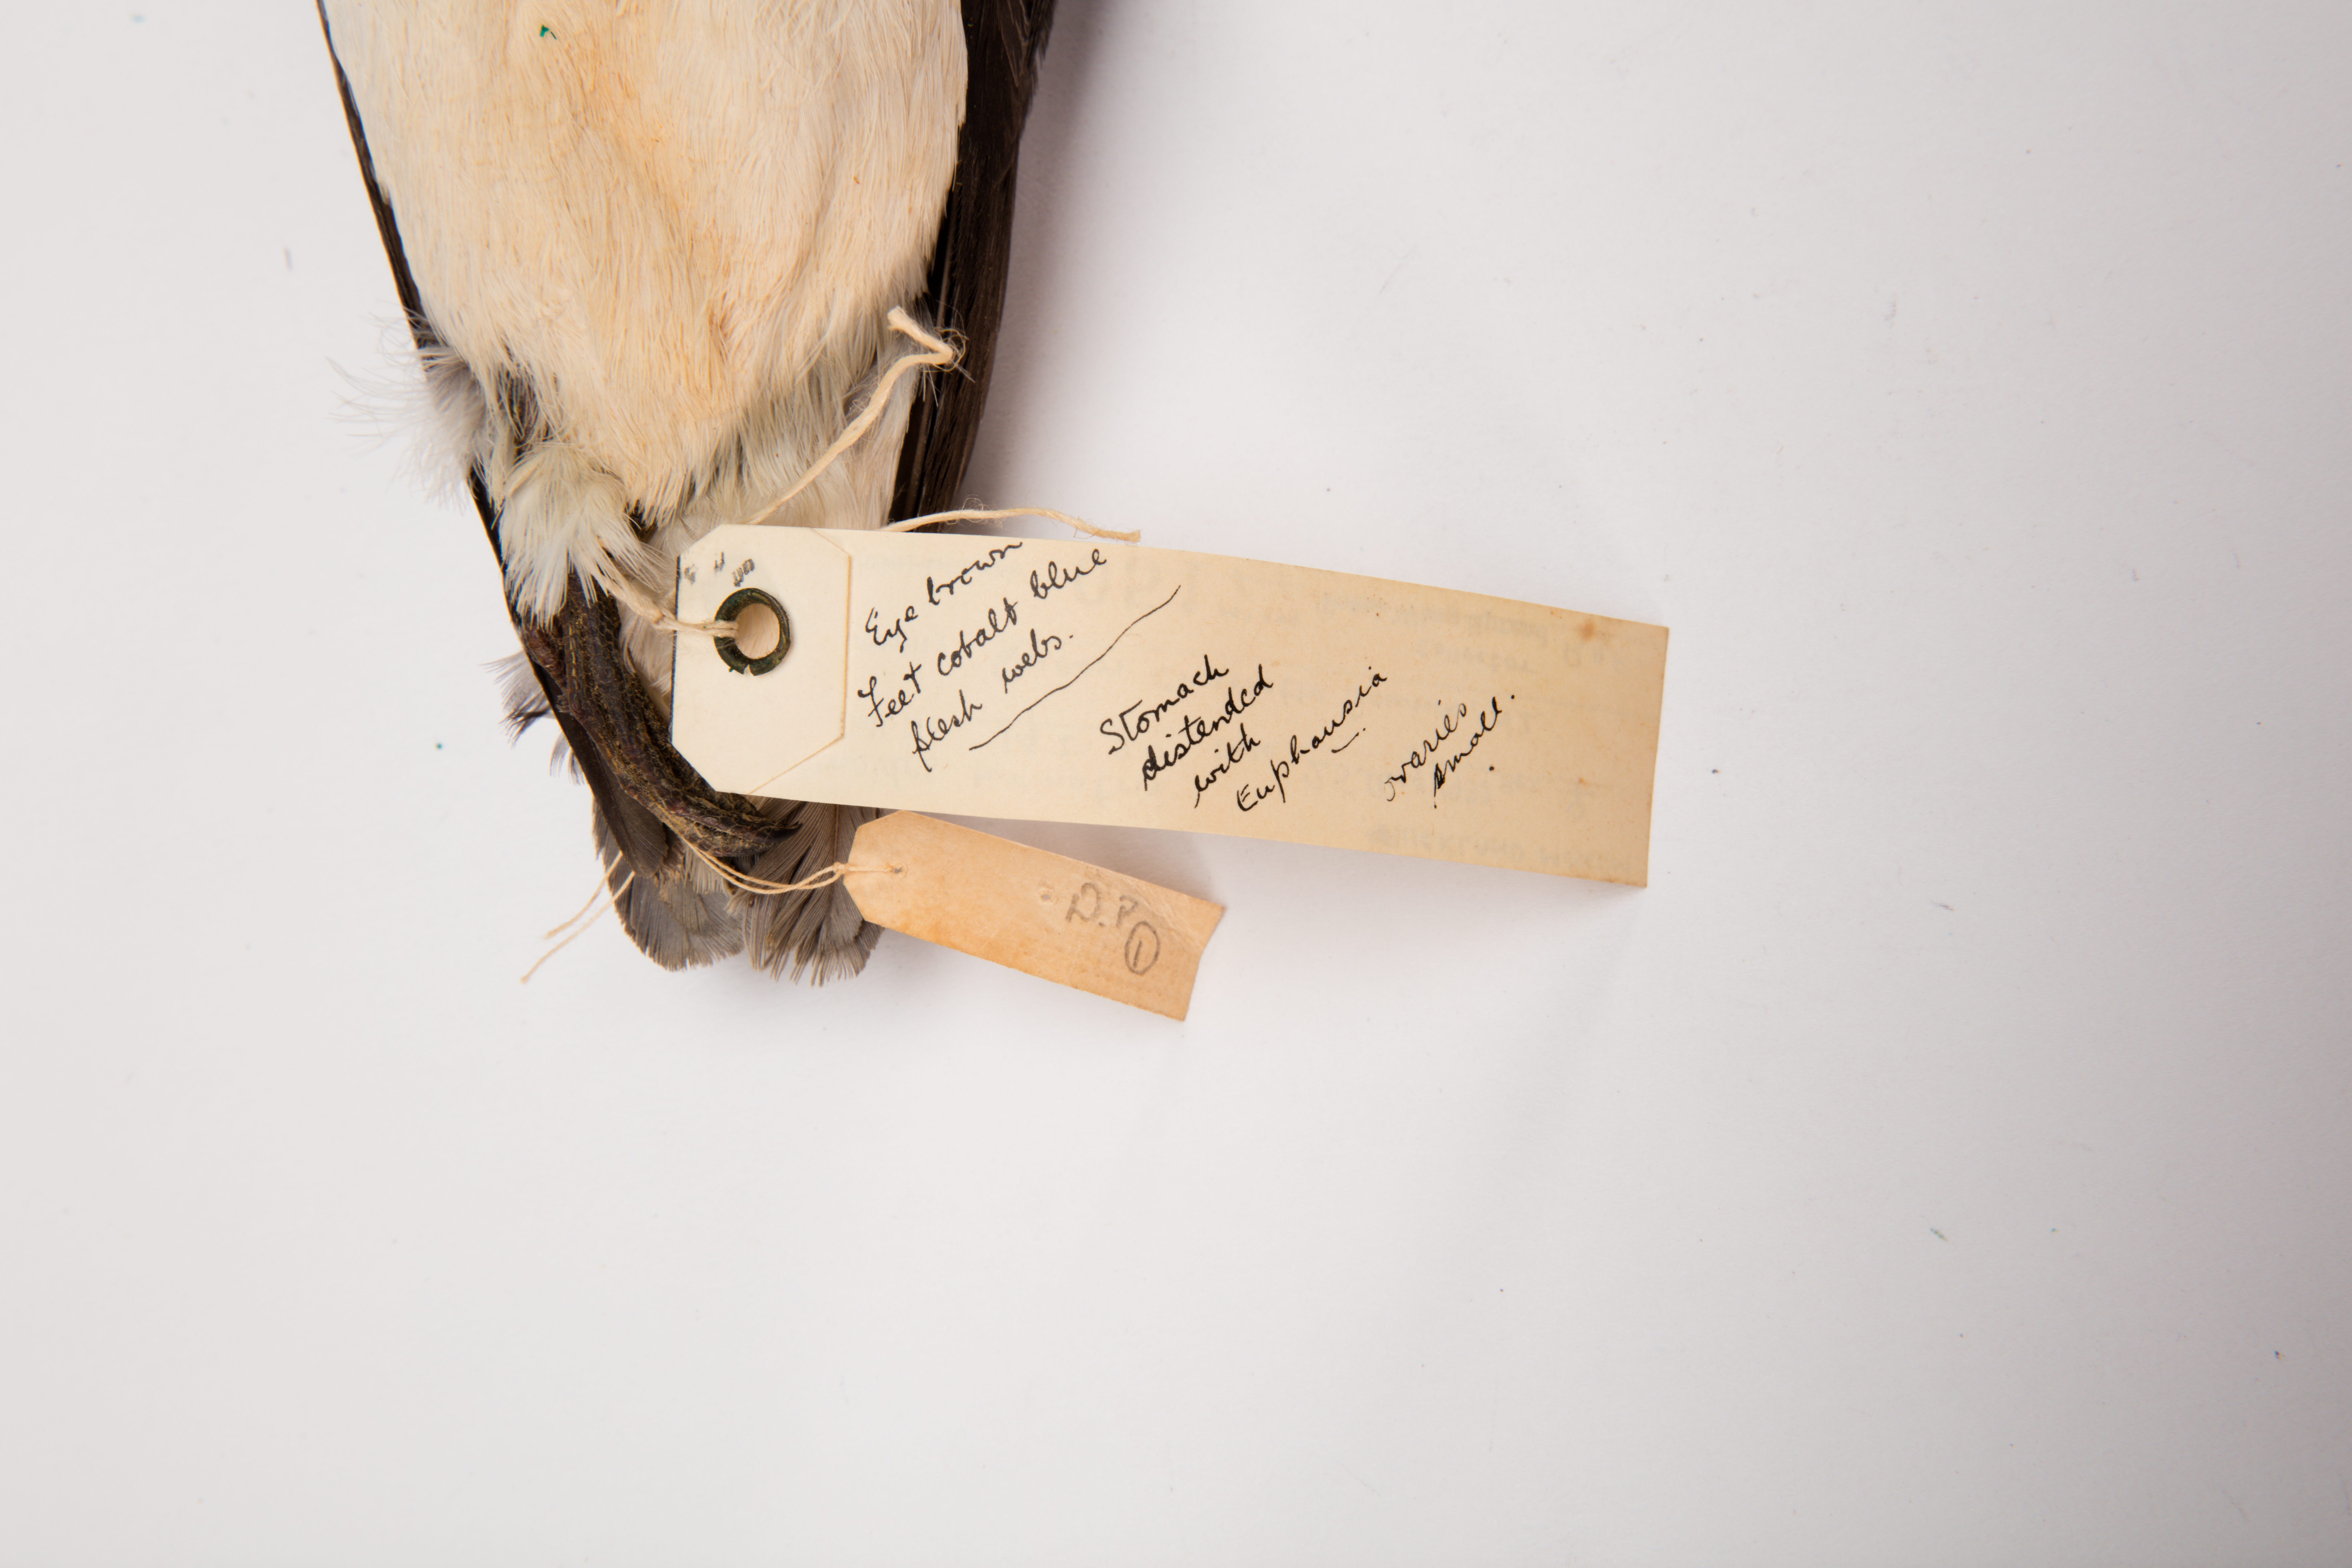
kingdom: Animalia
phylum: Chordata
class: Aves
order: Procellariiformes
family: Pelecanoididae
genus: Pelecanoides
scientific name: Pelecanoides urinatrix
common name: Common diving-petrel
